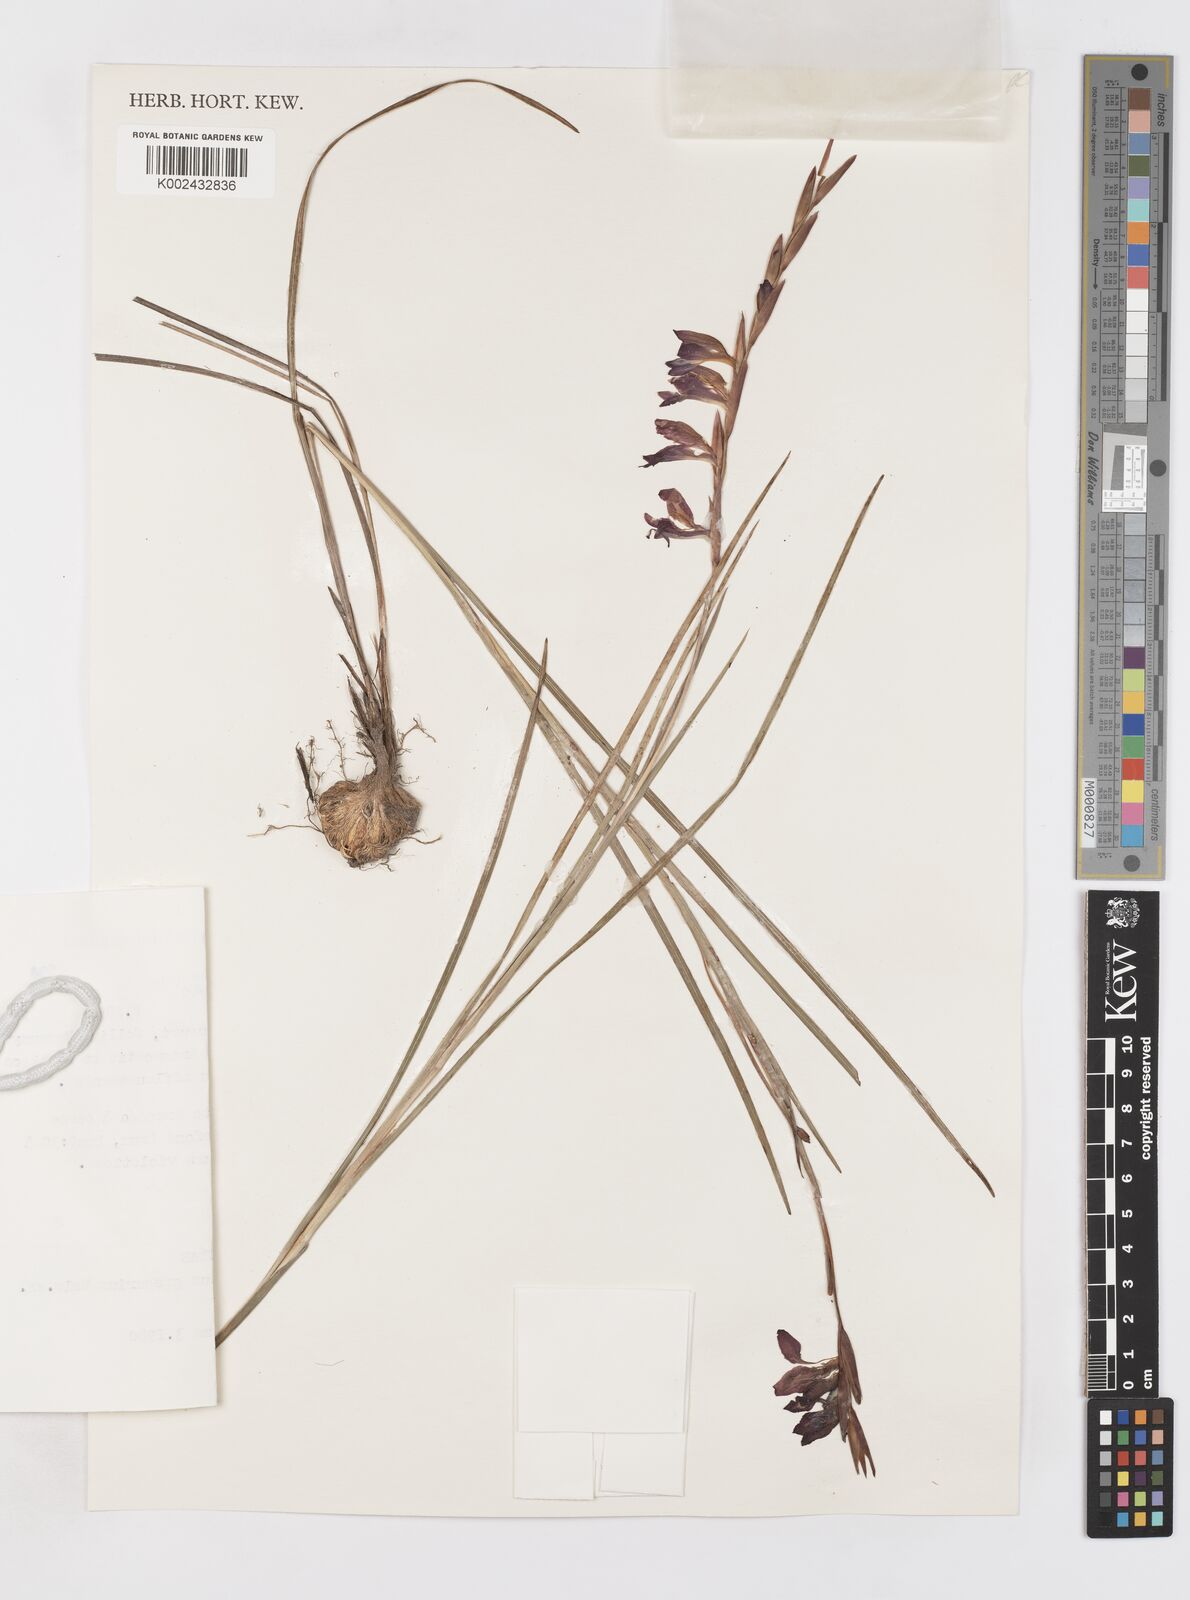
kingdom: Plantae
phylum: Tracheophyta
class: Liliopsida
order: Asparagales
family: Iridaceae
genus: Gladiolus
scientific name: Gladiolus gregarius
